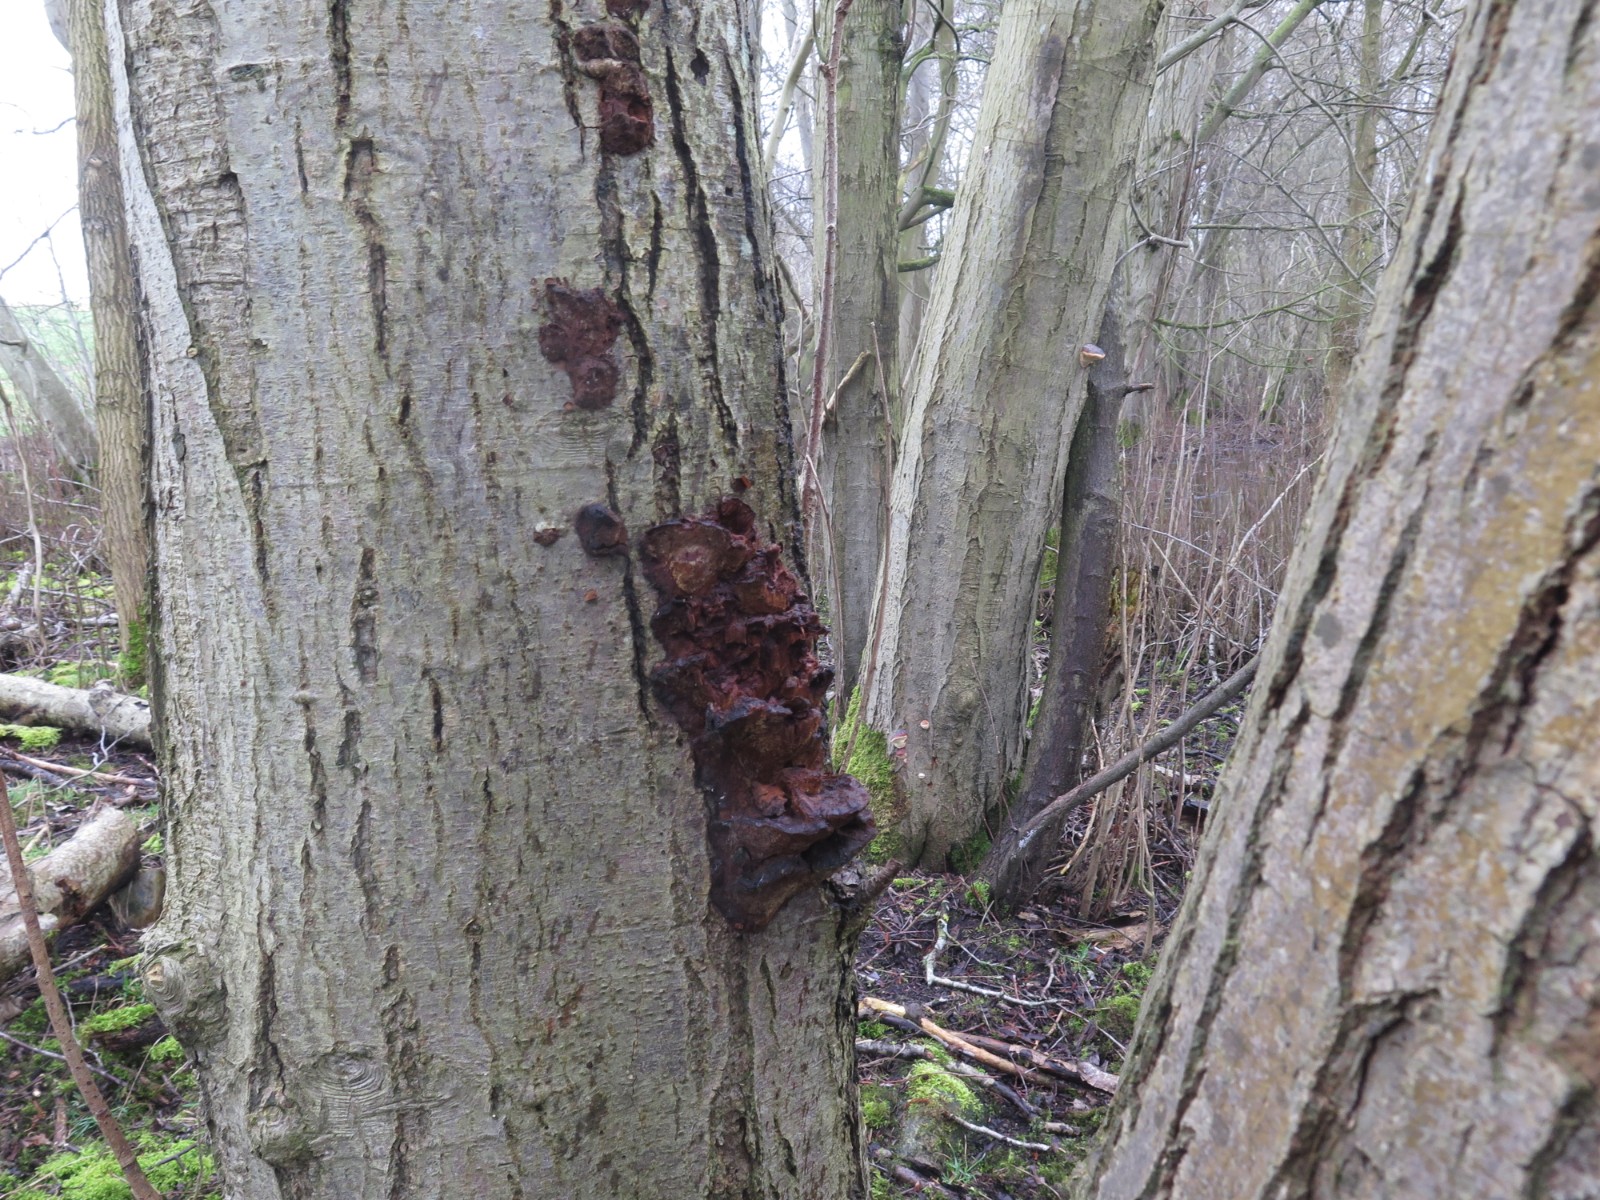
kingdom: Fungi
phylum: Basidiomycota
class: Agaricomycetes
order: Hymenochaetales
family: Hymenochaetaceae
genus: Xanthoporia
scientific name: Xanthoporia radiata
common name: elle-spejlporesvamp
